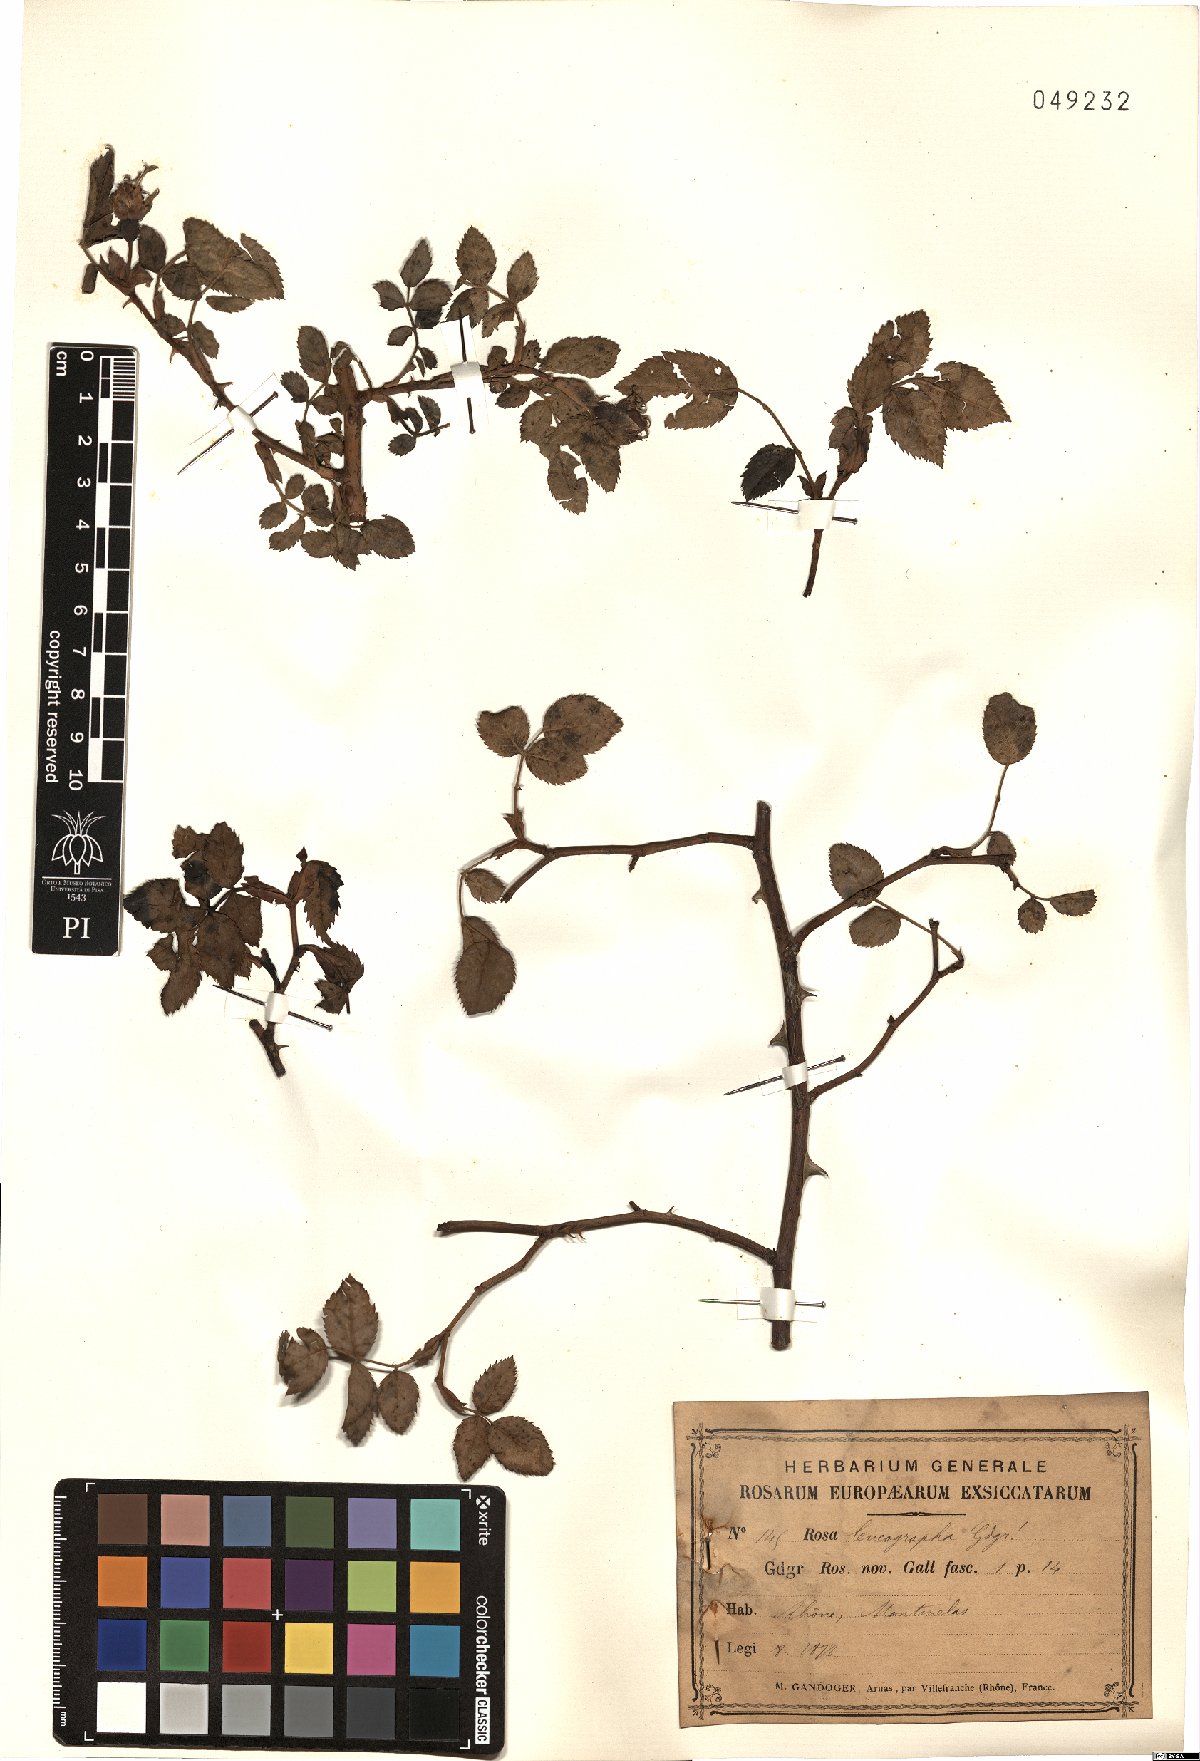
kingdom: Plantae
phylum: Tracheophyta
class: Magnoliopsida
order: Rosales
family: Rosaceae
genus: Rosa
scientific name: Rosa leucographa
